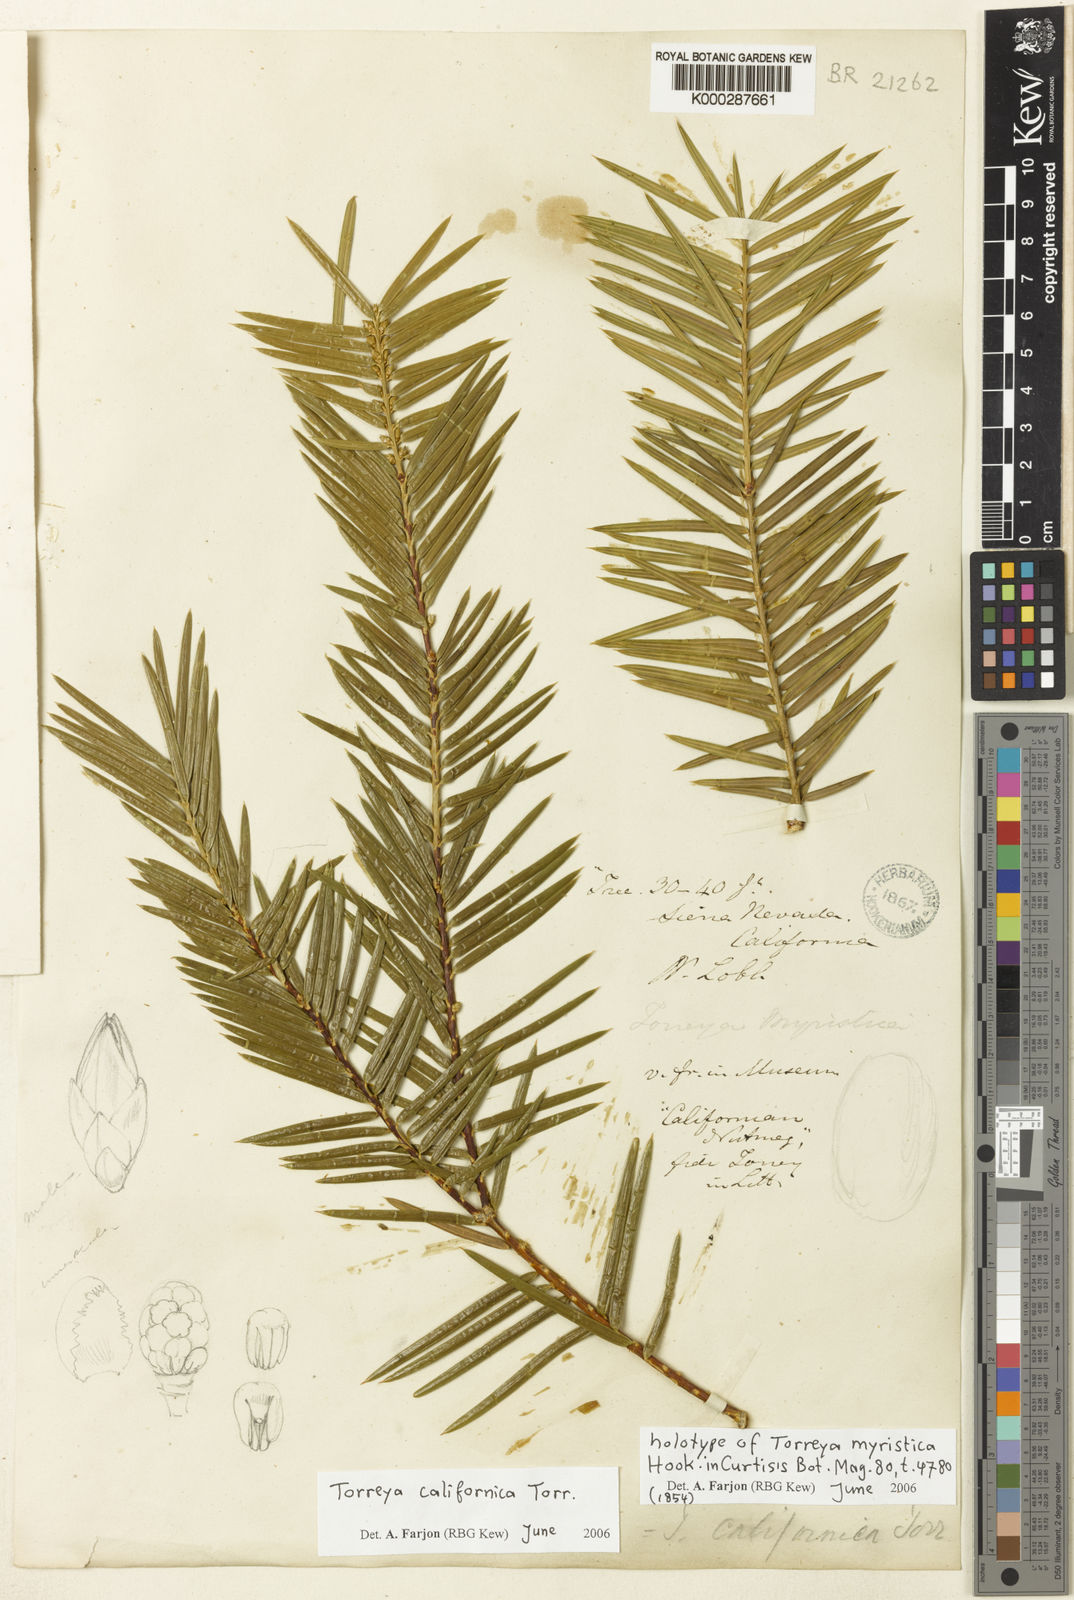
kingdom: Plantae
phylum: Tracheophyta
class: Pinopsida
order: Pinales
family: Taxaceae
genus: Torreya
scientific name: Torreya californica
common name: California torreya
